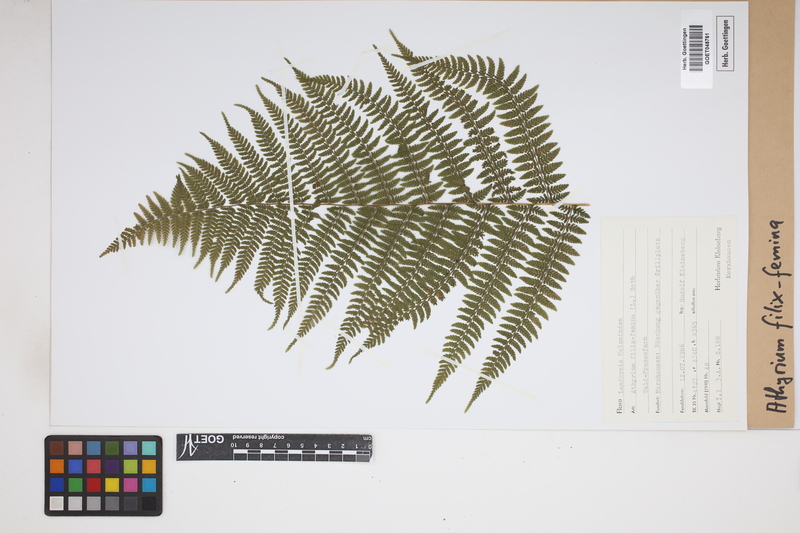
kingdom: Plantae
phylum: Tracheophyta
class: Polypodiopsida
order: Polypodiales
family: Athyriaceae
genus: Athyrium
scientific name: Athyrium filix-femina
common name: Lady fern
